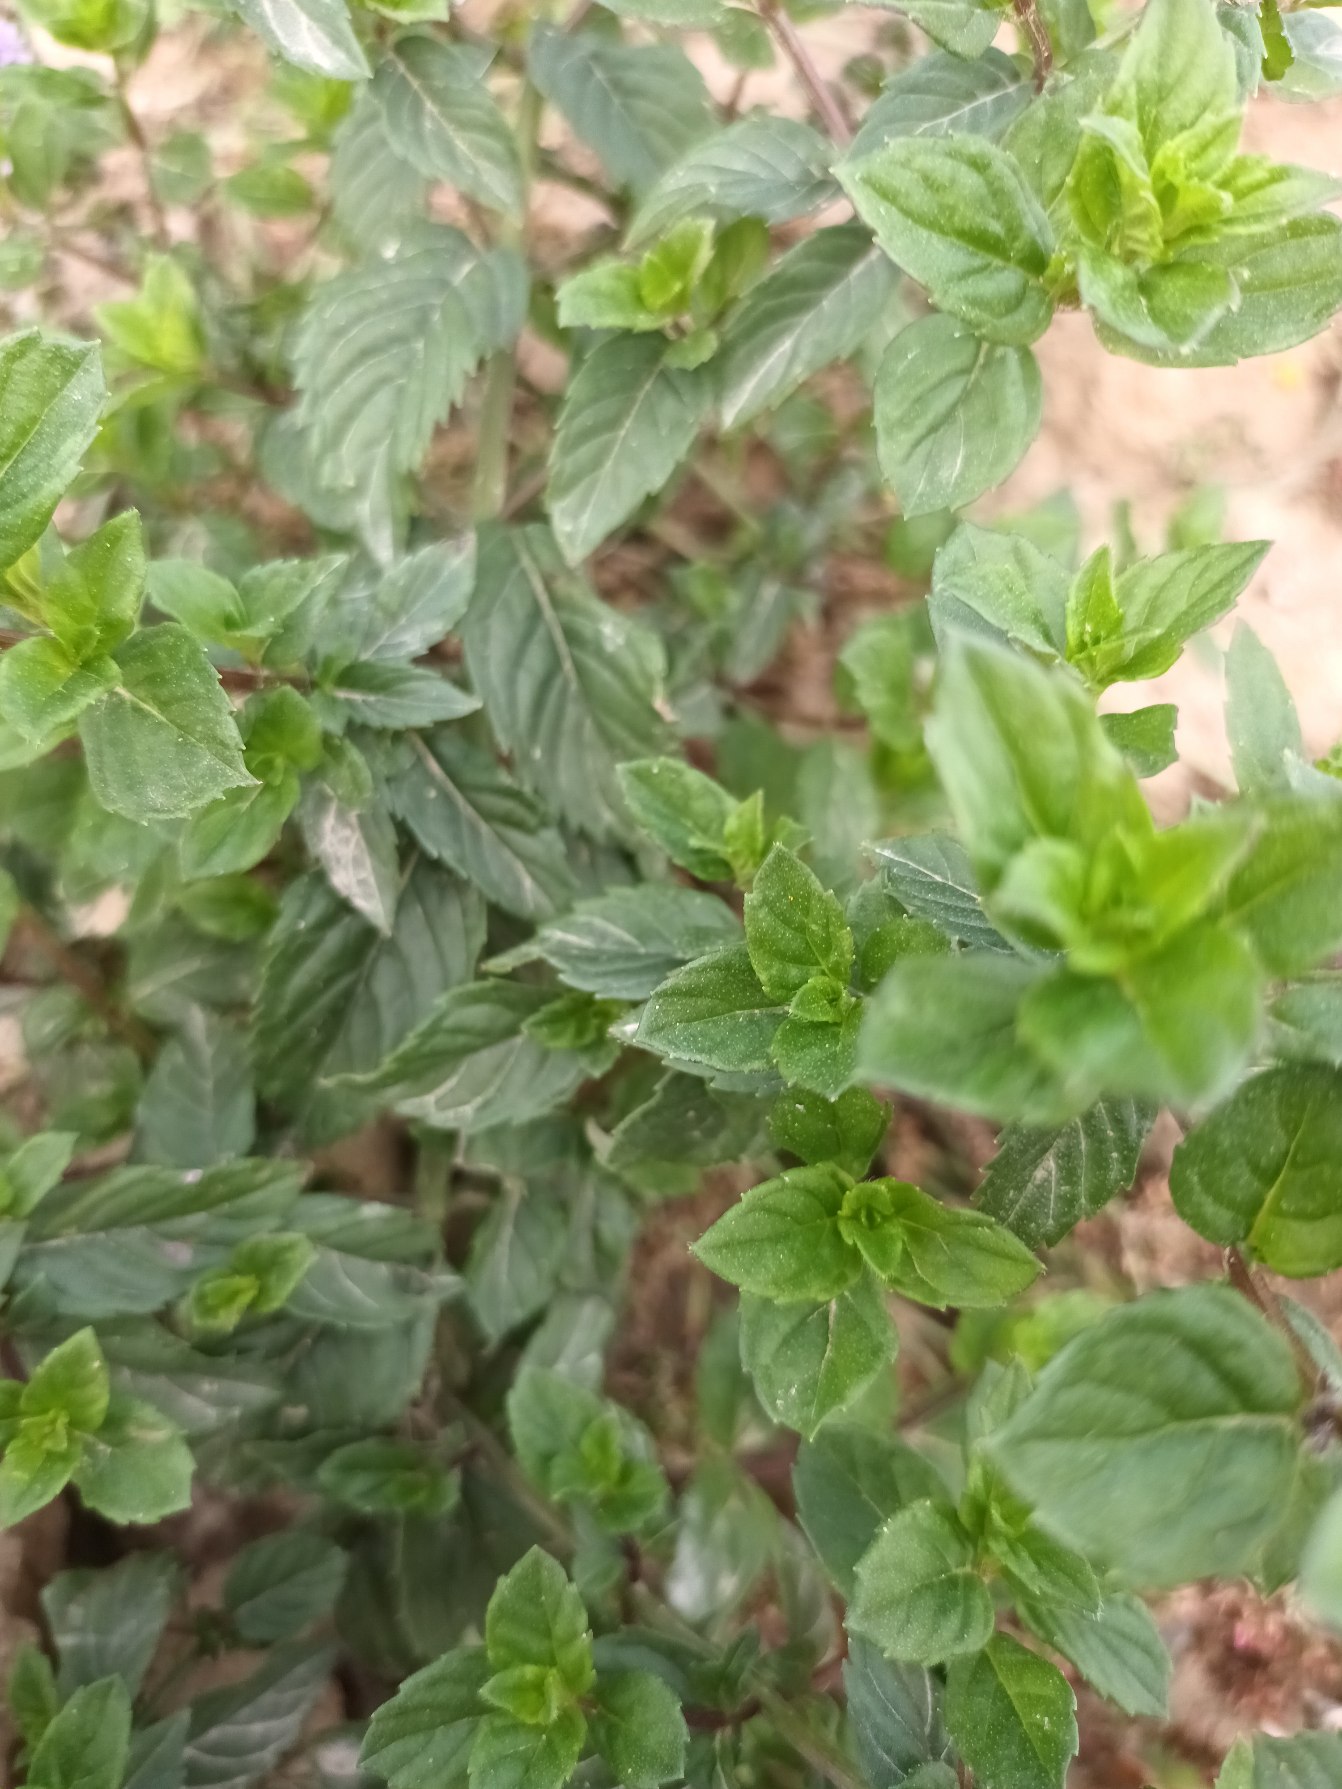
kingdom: Plantae
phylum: Tracheophyta
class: Magnoliopsida
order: Lamiales
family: Lamiaceae
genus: Mentha
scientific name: Mentha wirtgeniana
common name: Høj mynte
